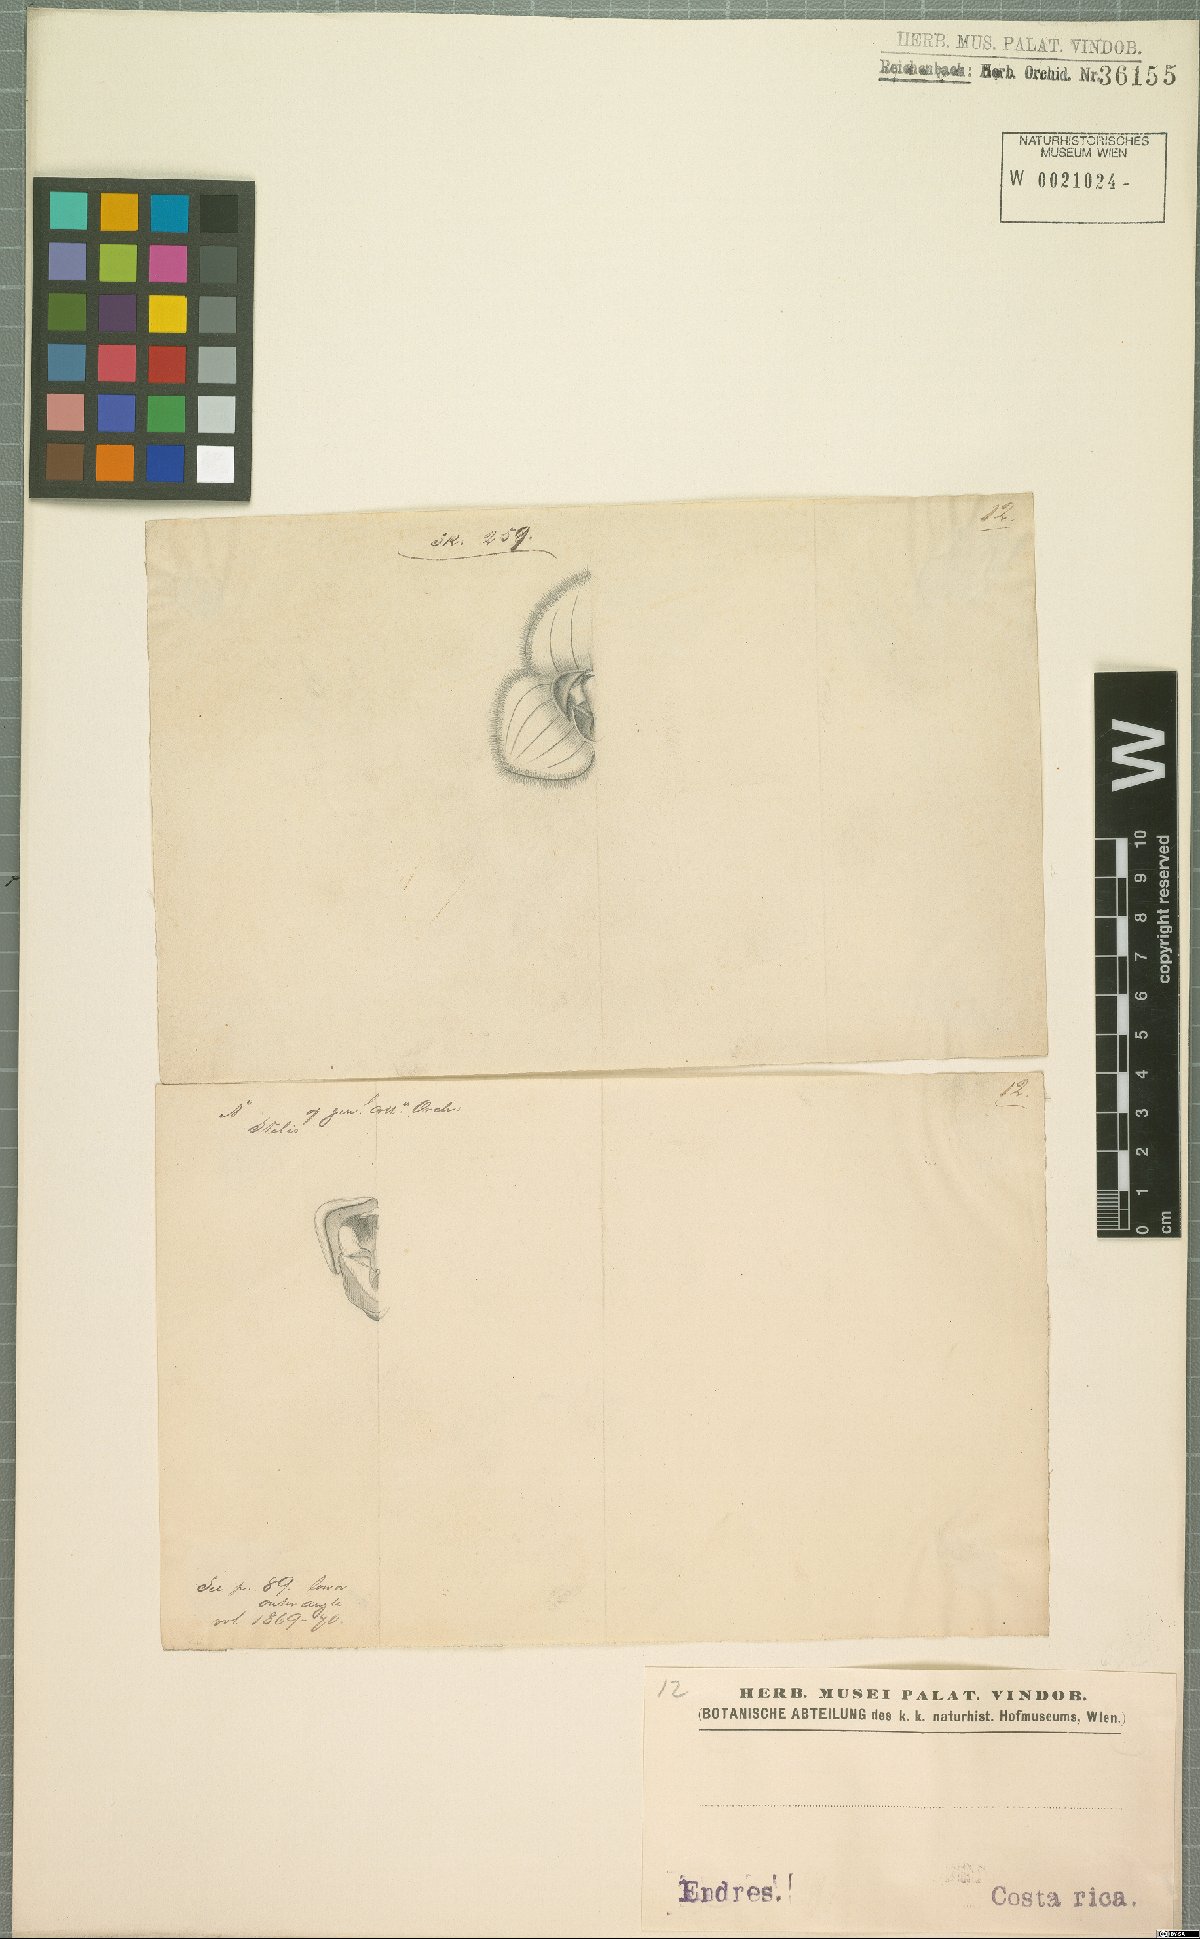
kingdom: Plantae
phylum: Tracheophyta
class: Liliopsida
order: Asparagales
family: Orchidaceae
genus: Stelis
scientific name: Stelis
